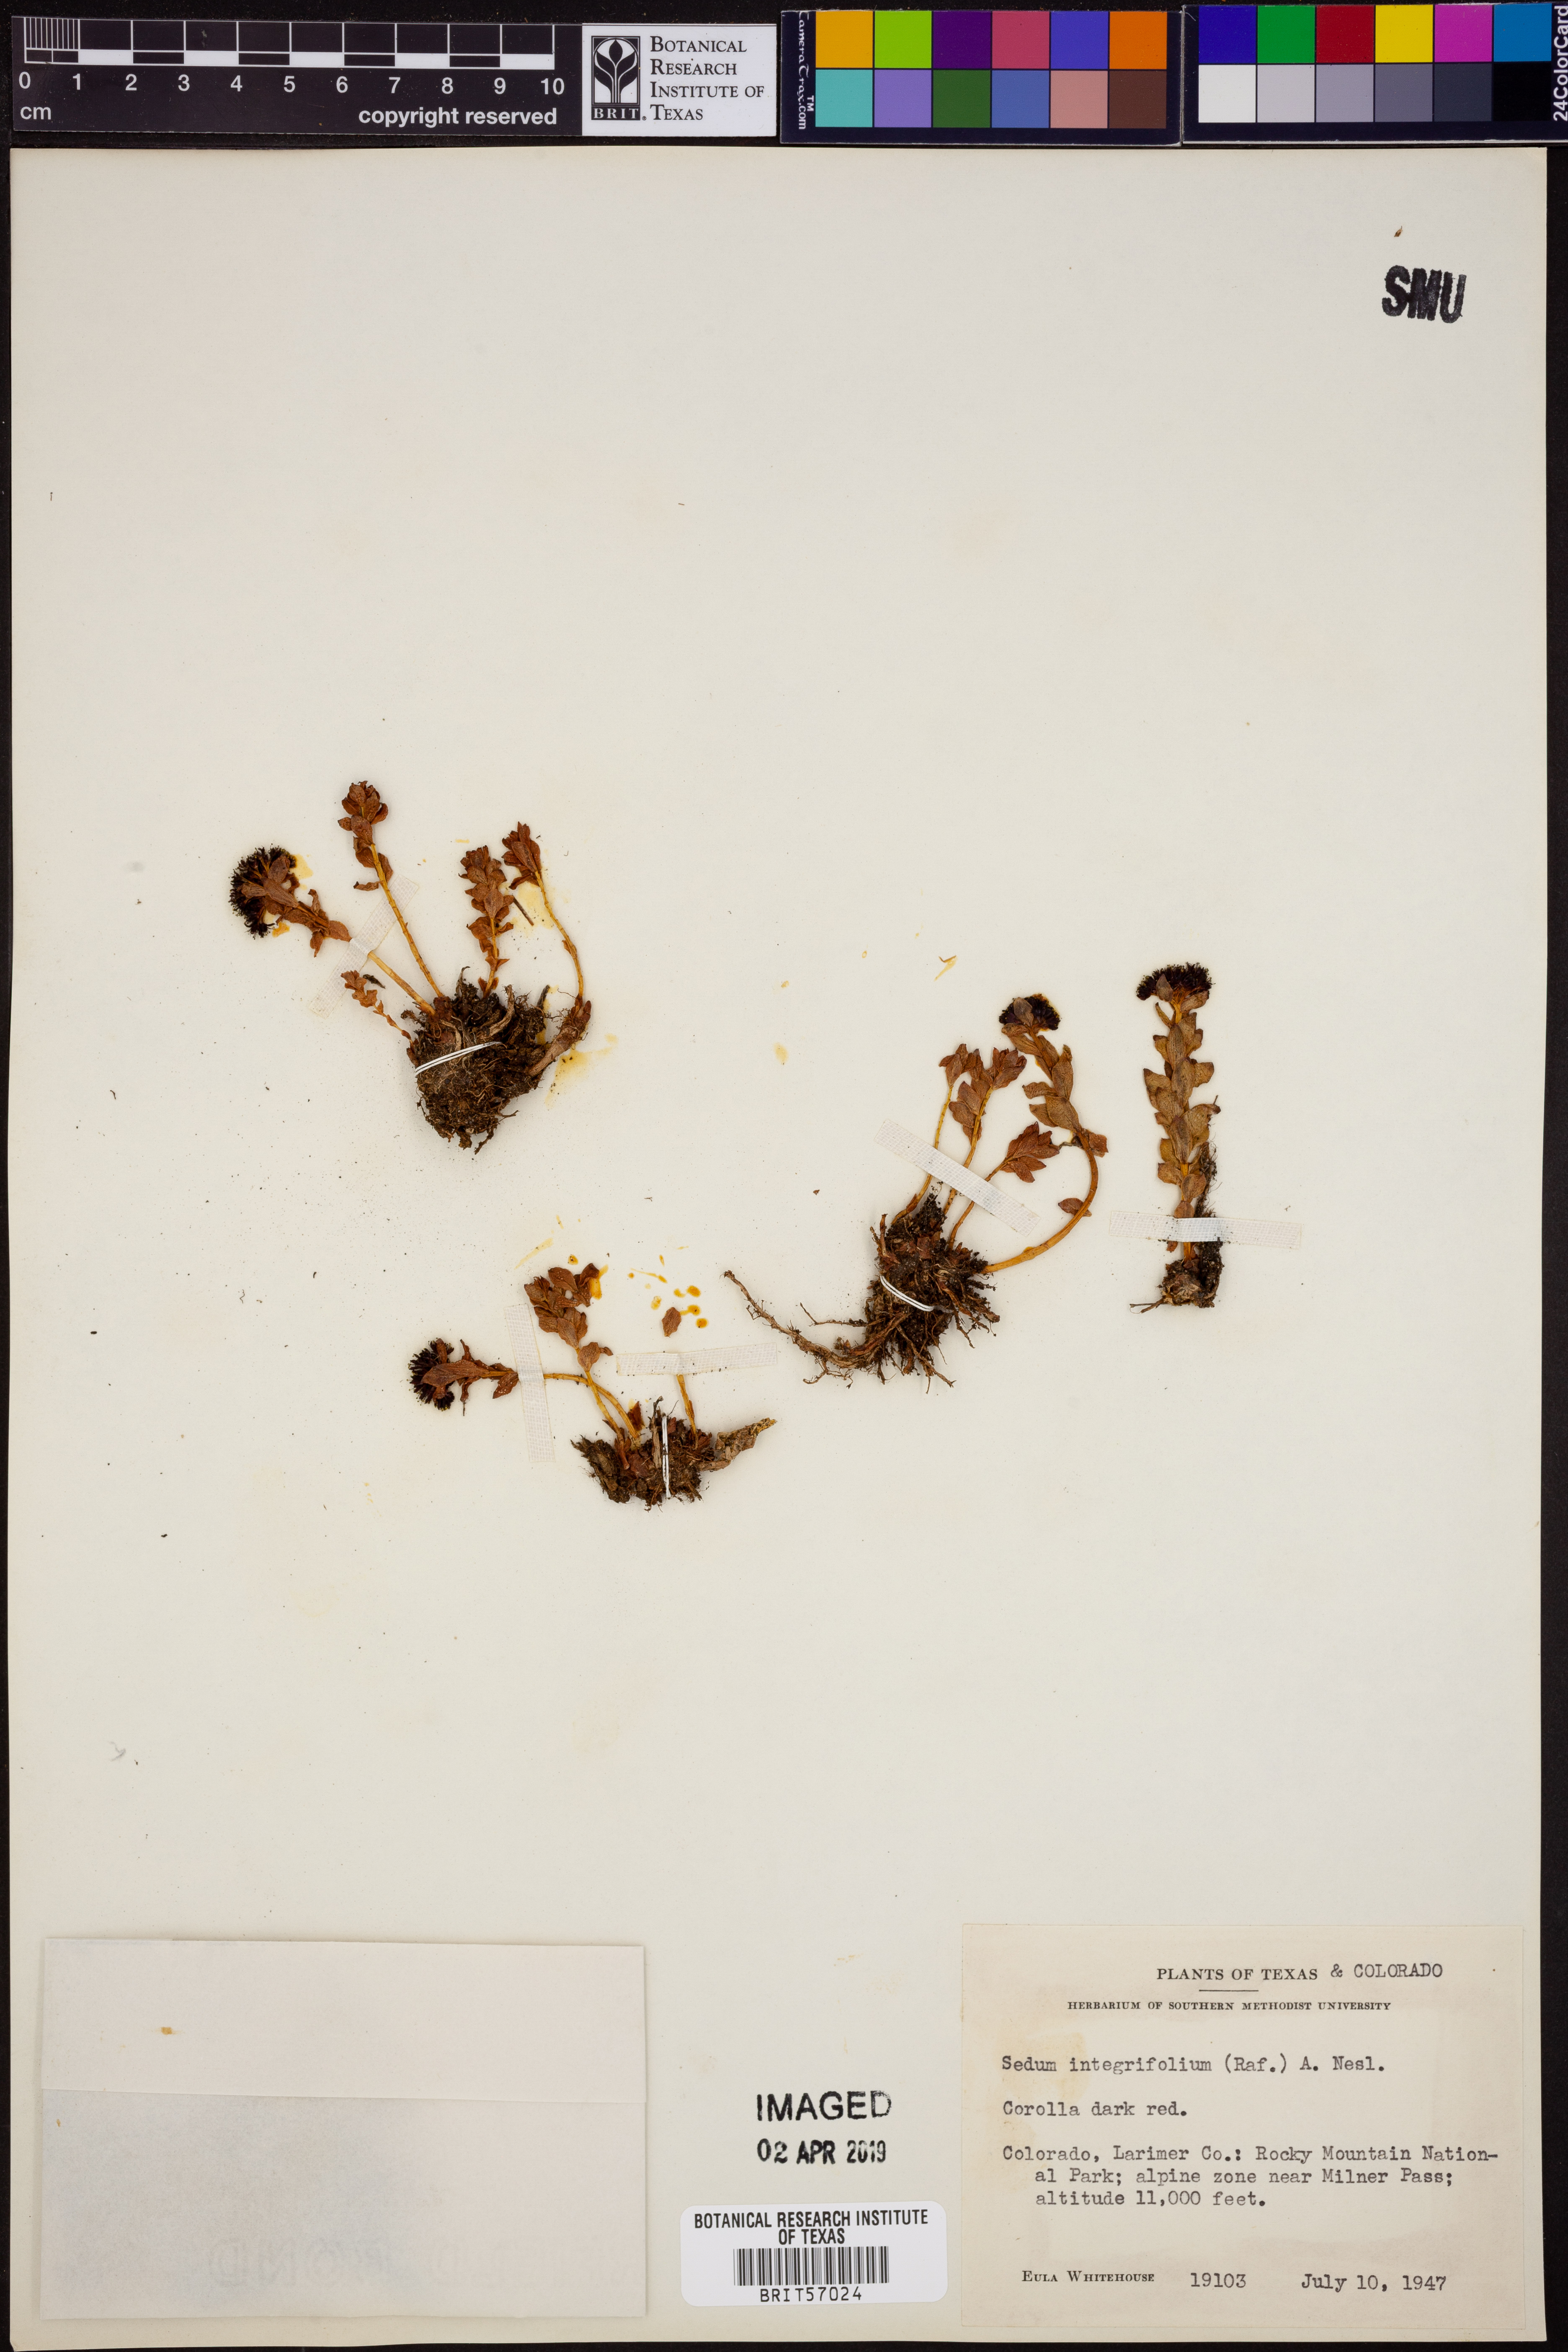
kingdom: Plantae
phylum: Tracheophyta
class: Magnoliopsida
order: Saxifragales
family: Crassulaceae
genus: Rhodiola
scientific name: Rhodiola integrifolia
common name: Western roseroot
